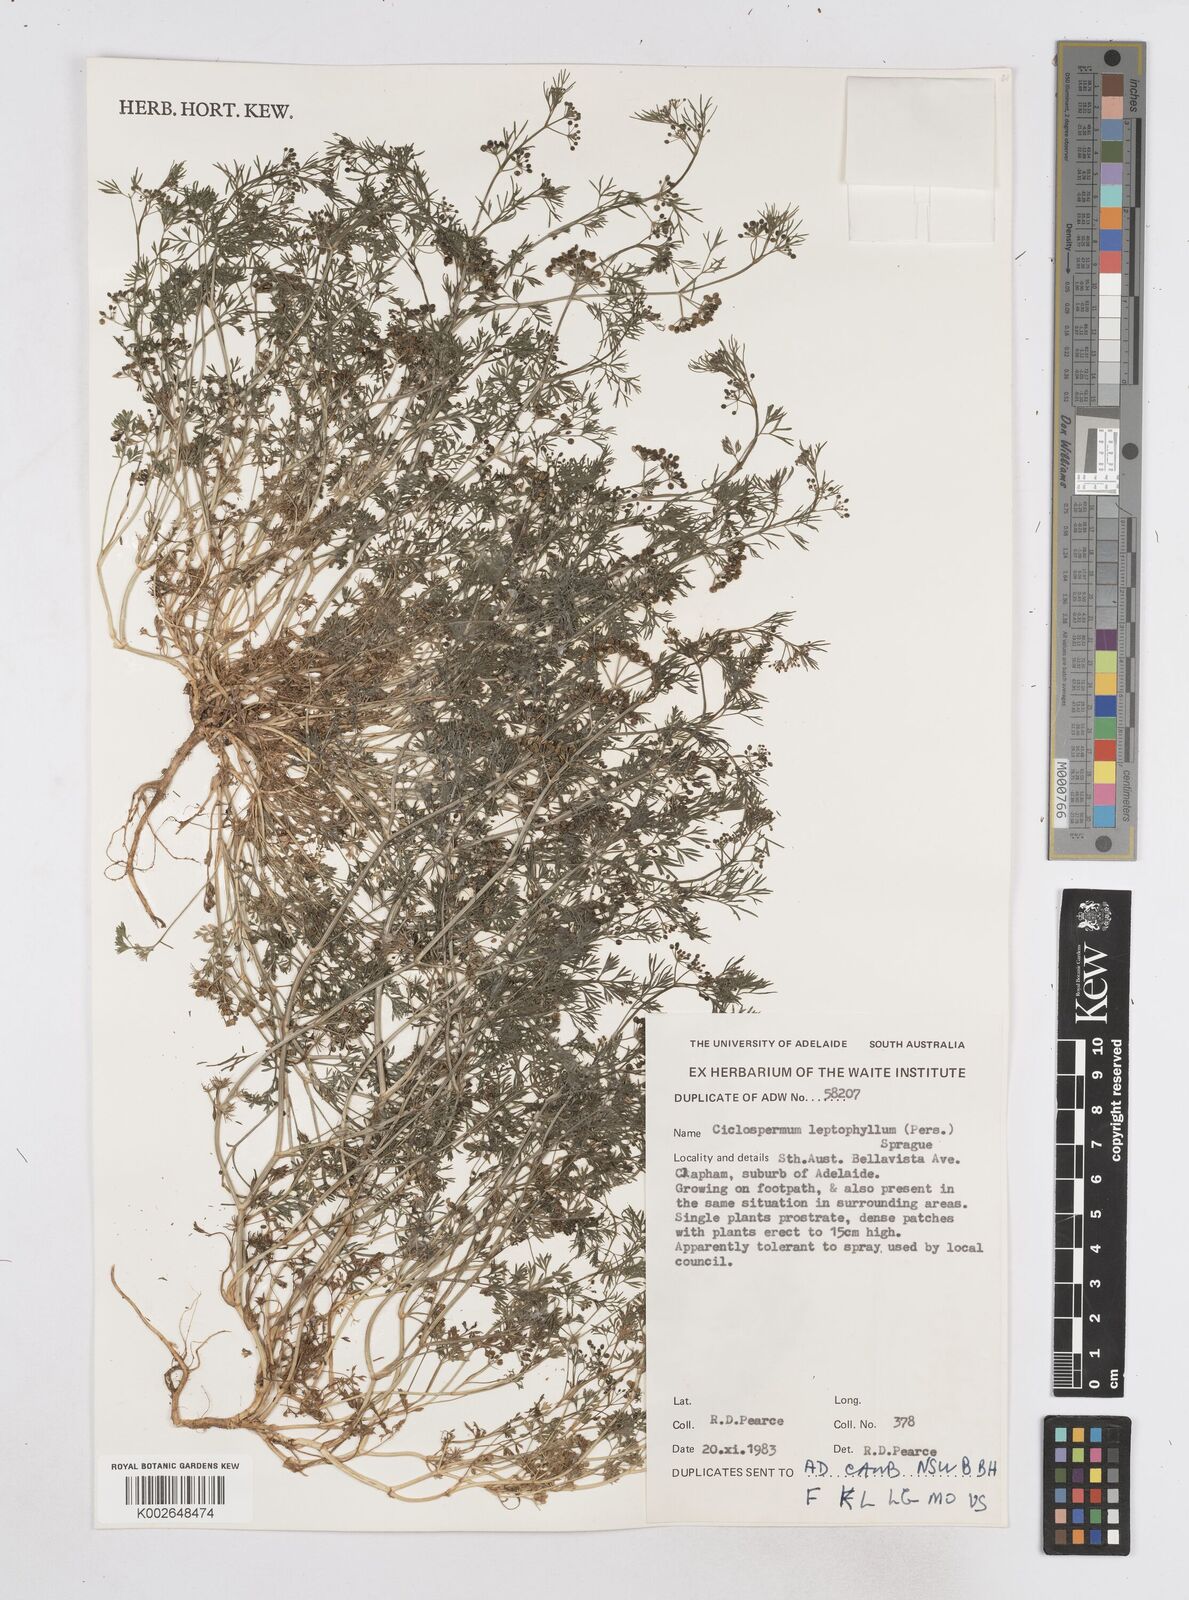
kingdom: Plantae
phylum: Tracheophyta
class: Magnoliopsida
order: Apiales
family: Apiaceae
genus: Cyclospermum
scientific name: Cyclospermum leptophyllum
